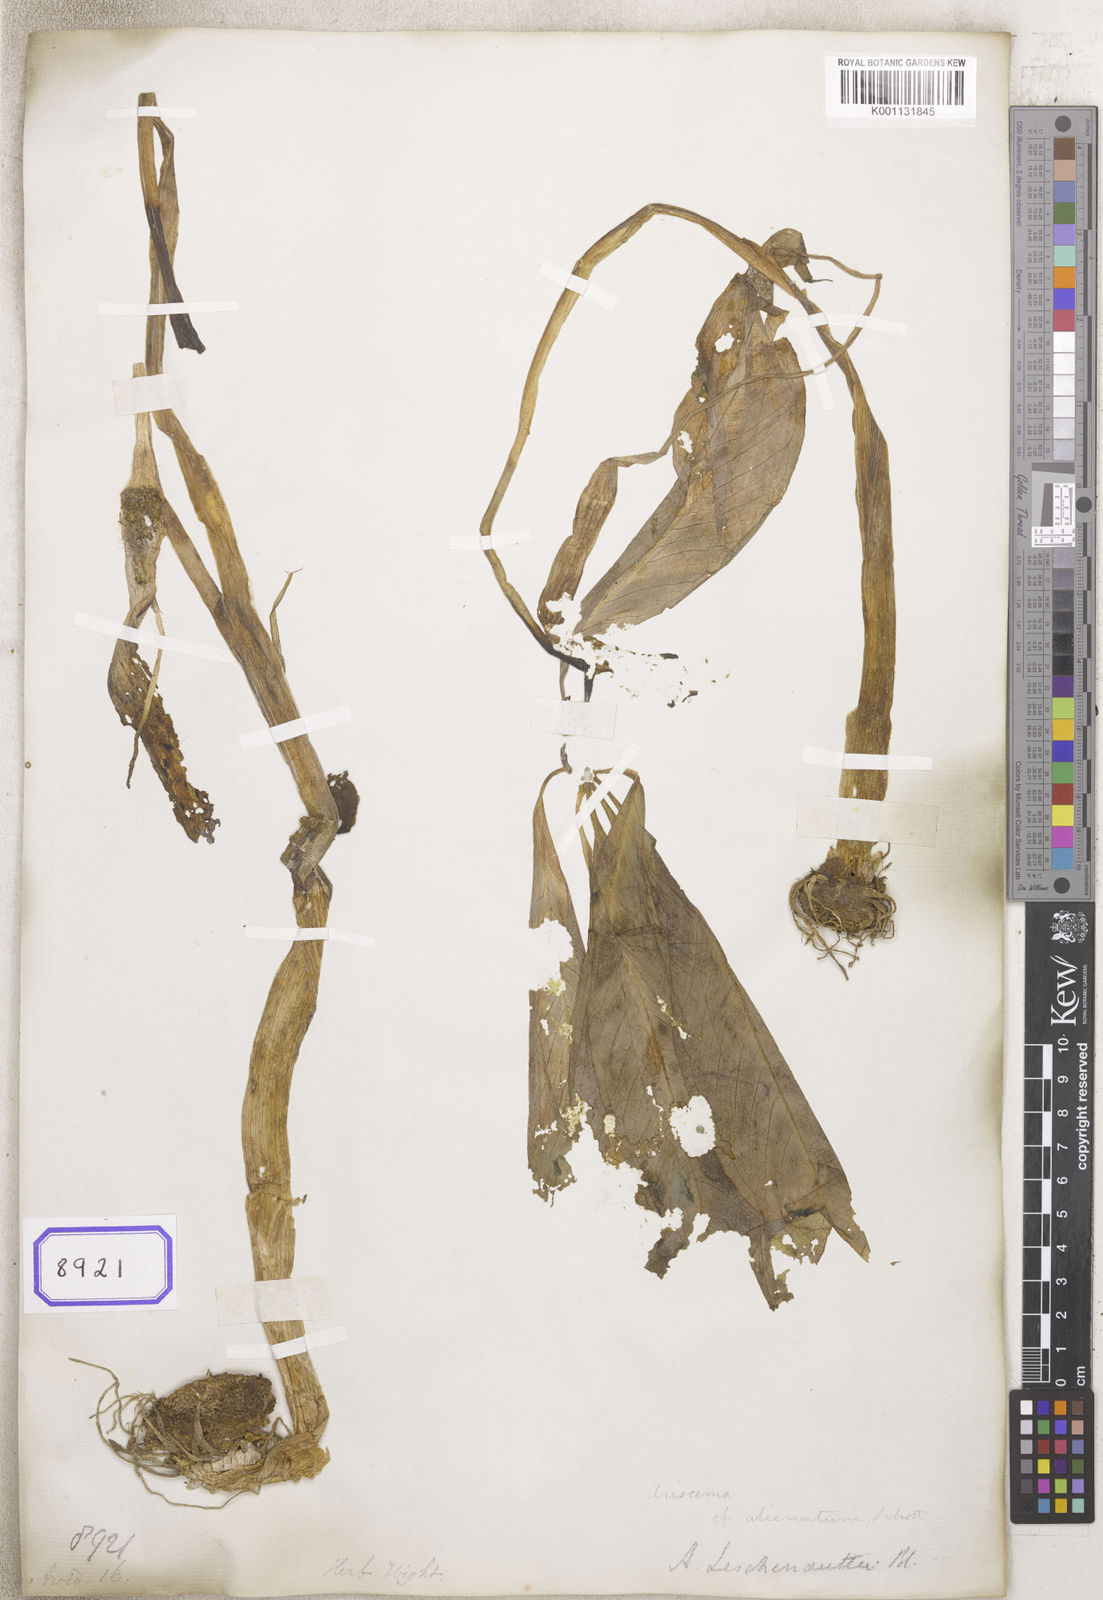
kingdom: Plantae
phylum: Tracheophyta
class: Liliopsida
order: Alismatales
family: Araceae
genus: Arisaema
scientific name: Arisaema
